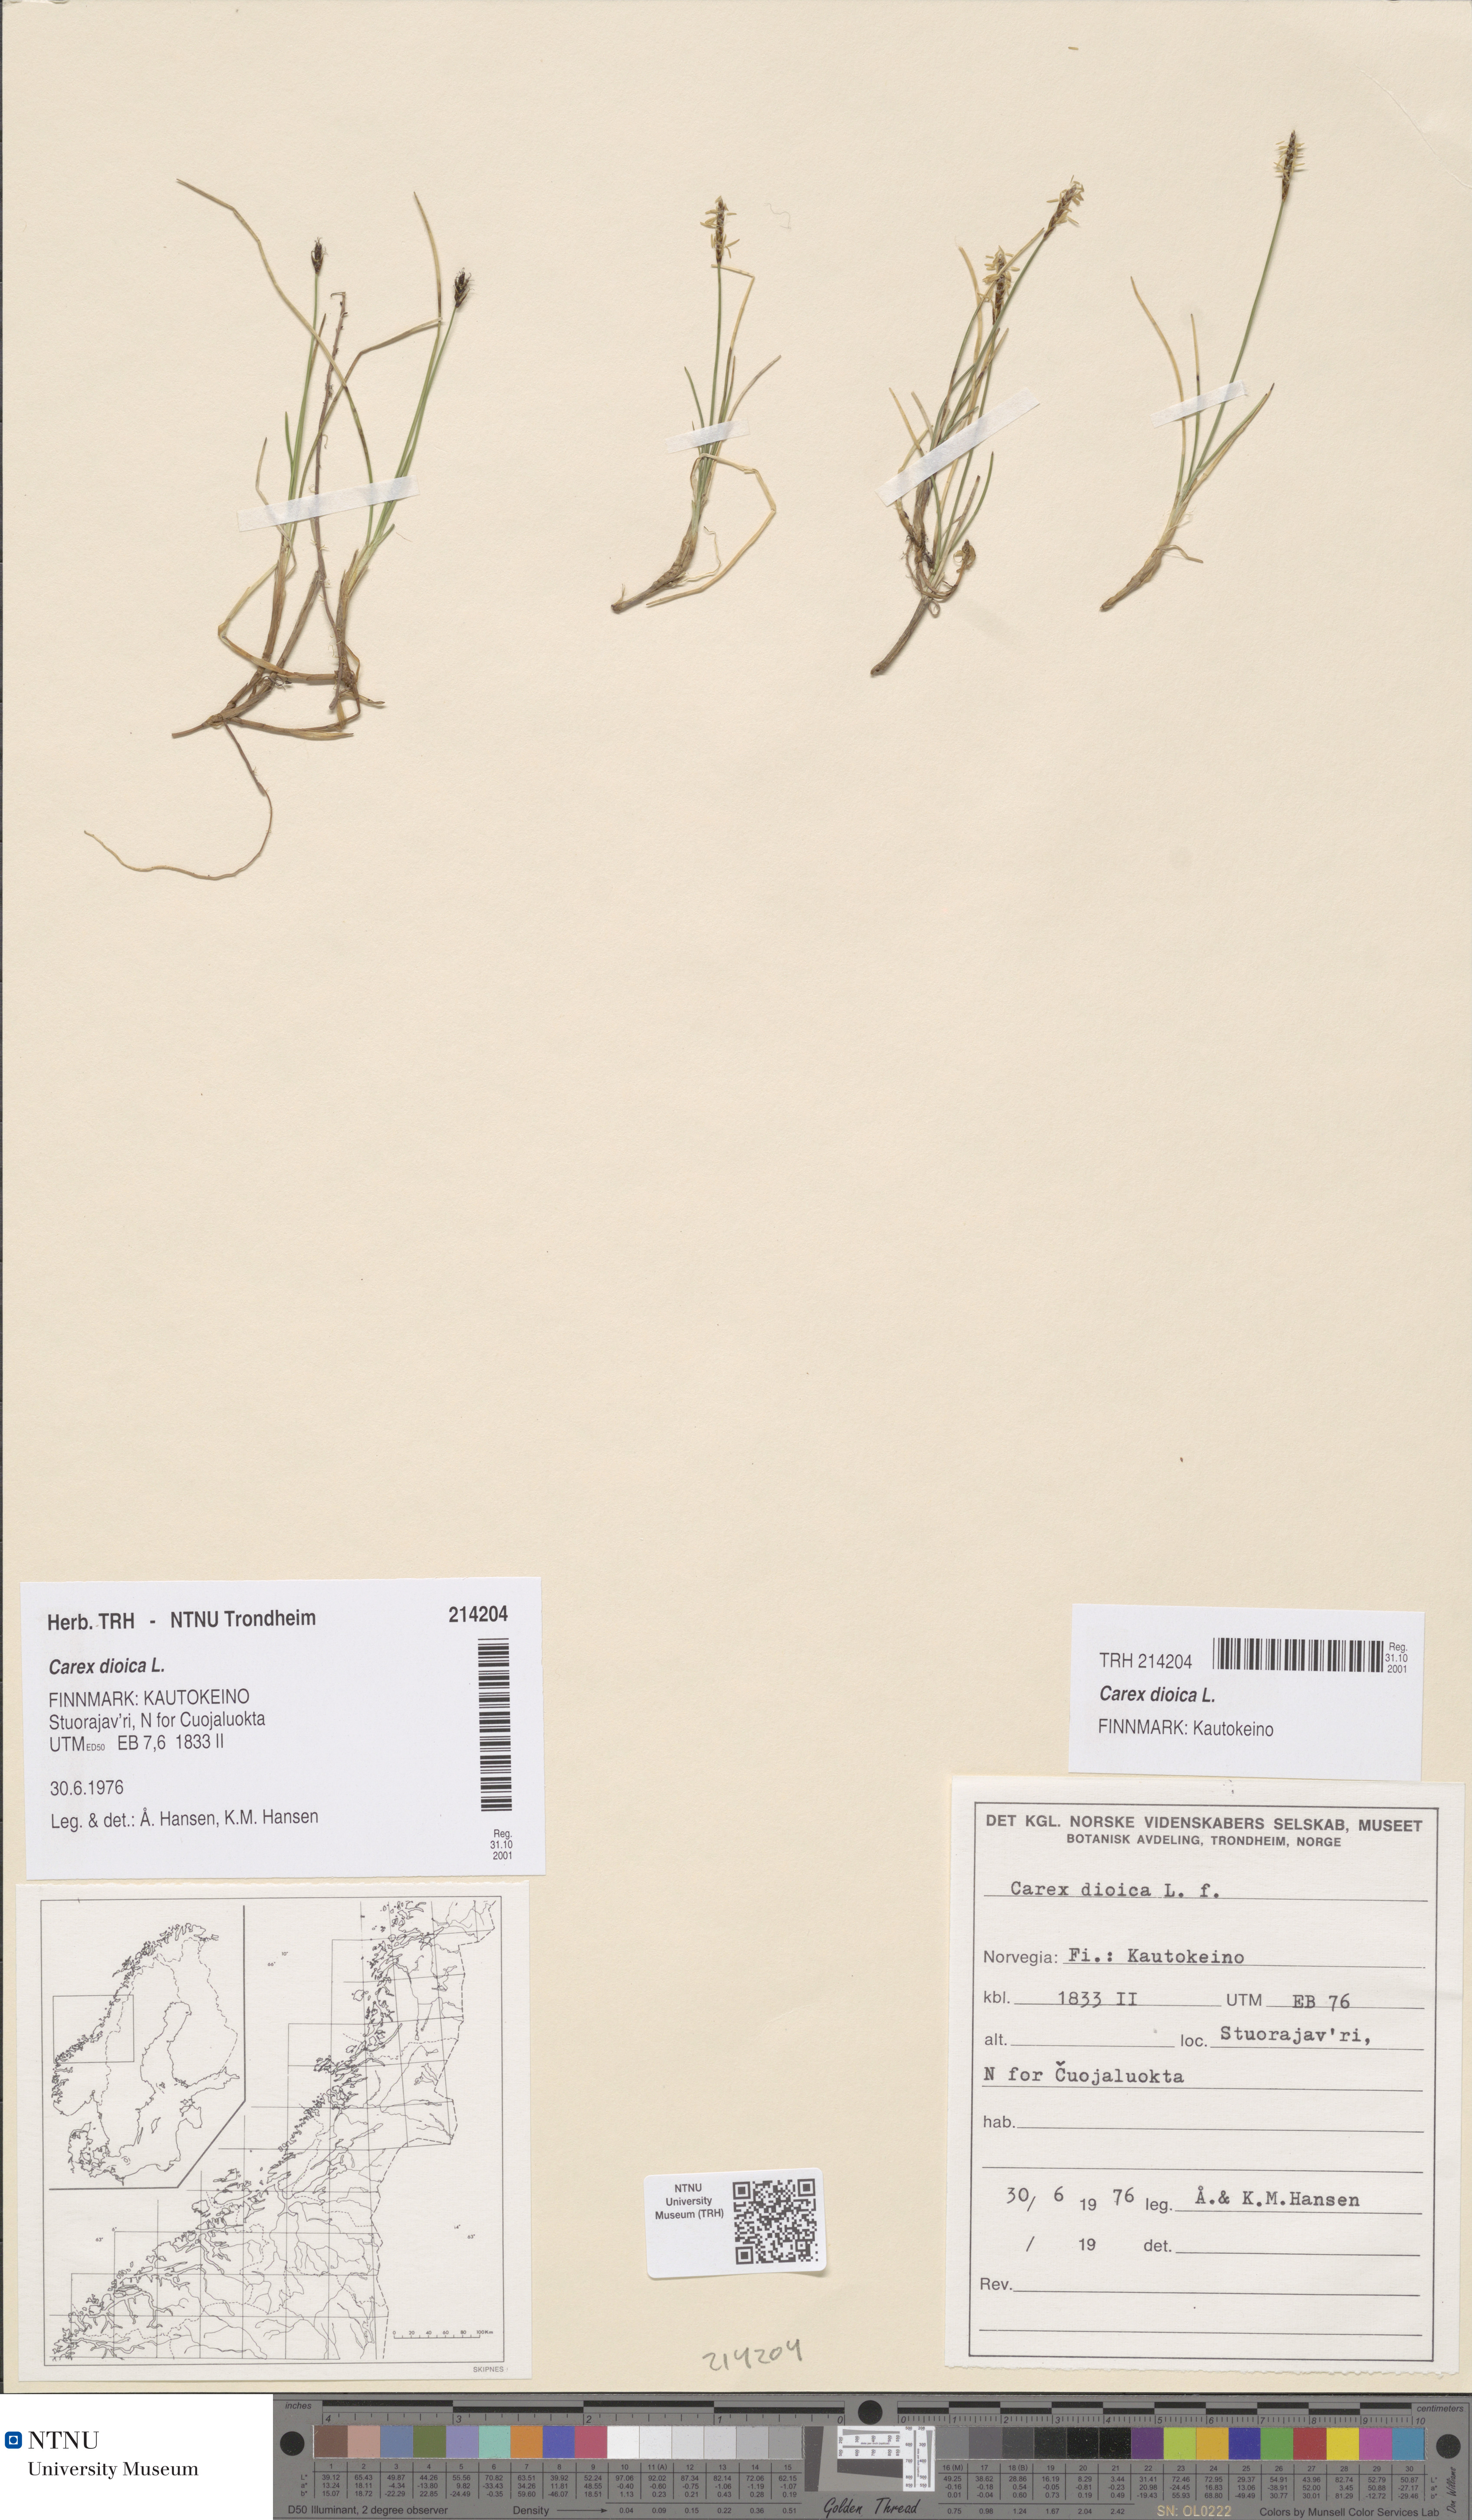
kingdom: Plantae
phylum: Tracheophyta
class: Liliopsida
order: Poales
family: Cyperaceae
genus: Carex
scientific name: Carex dioica
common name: Dioecious sedge
